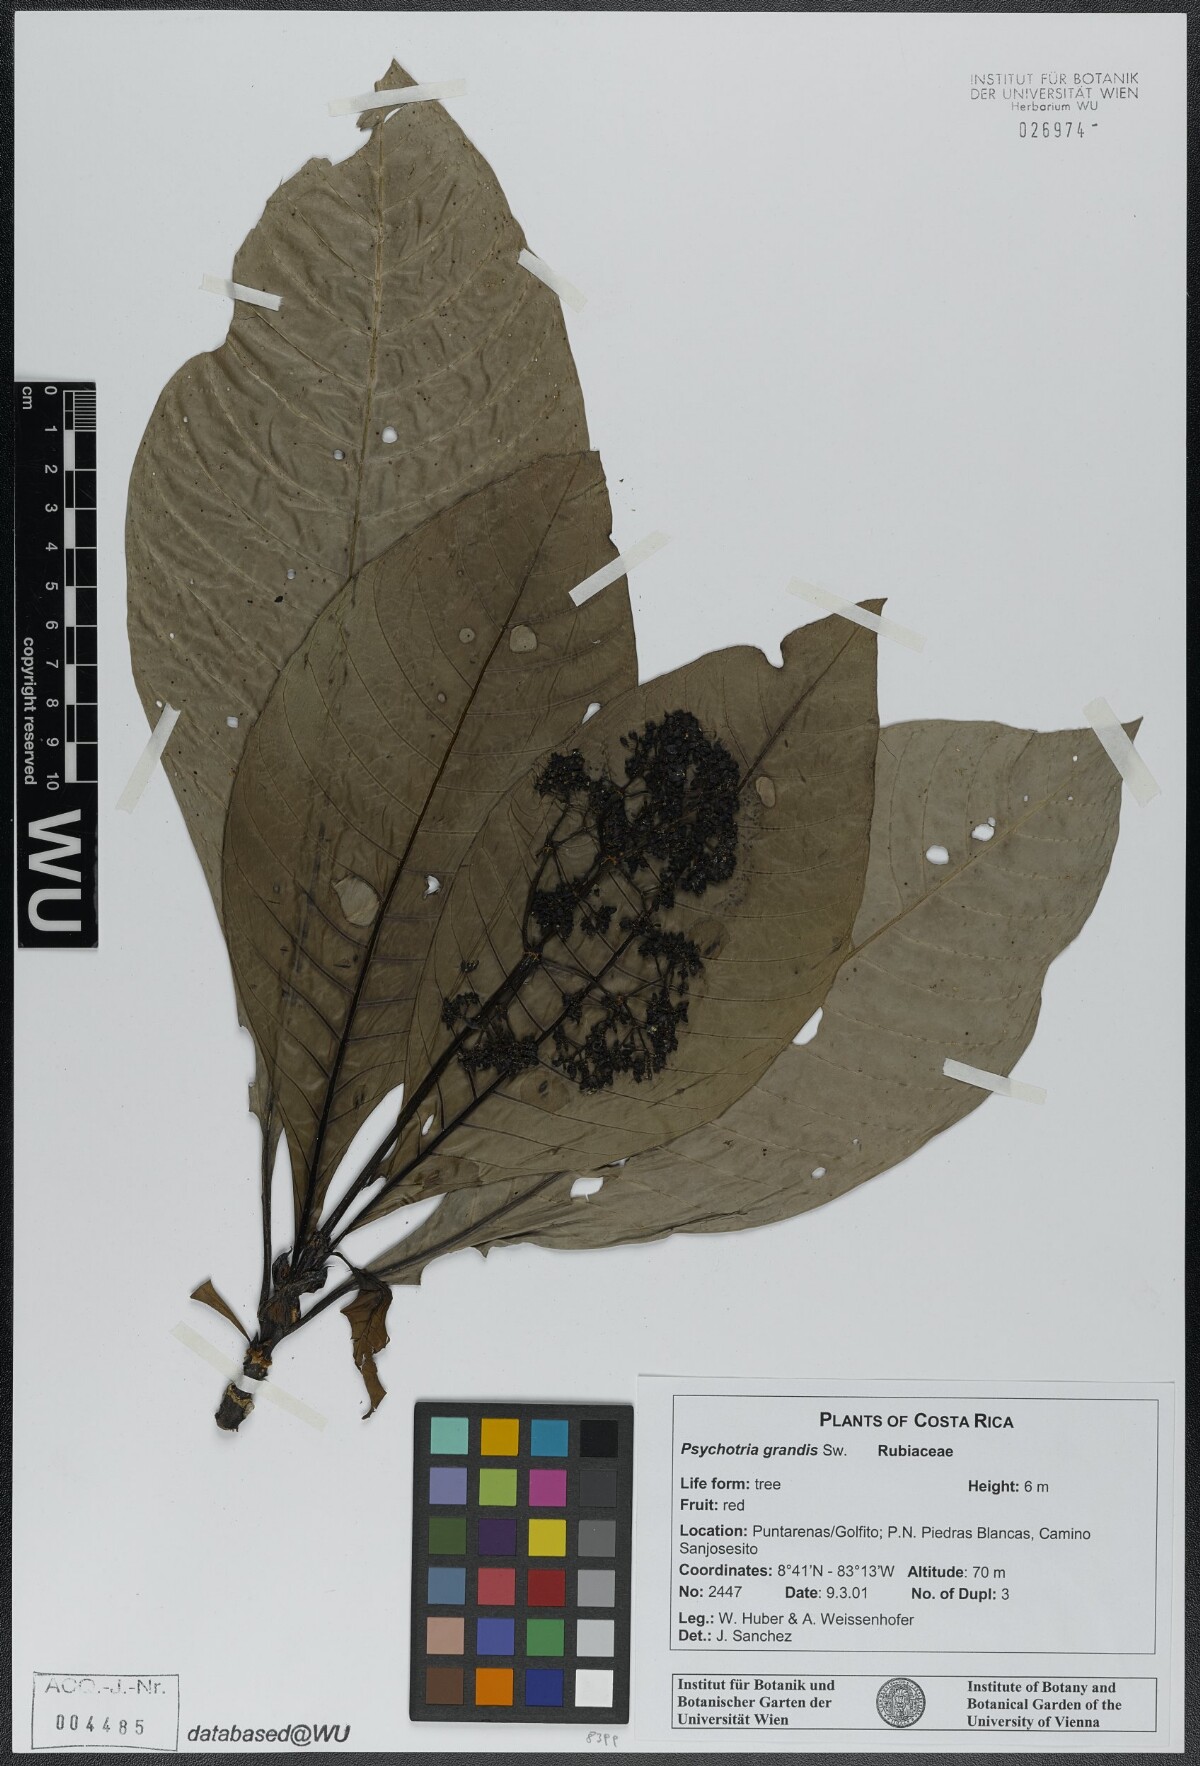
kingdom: Plantae
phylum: Tracheophyta
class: Magnoliopsida
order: Gentianales
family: Rubiaceae
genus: Psychotria
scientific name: Psychotria grandis
